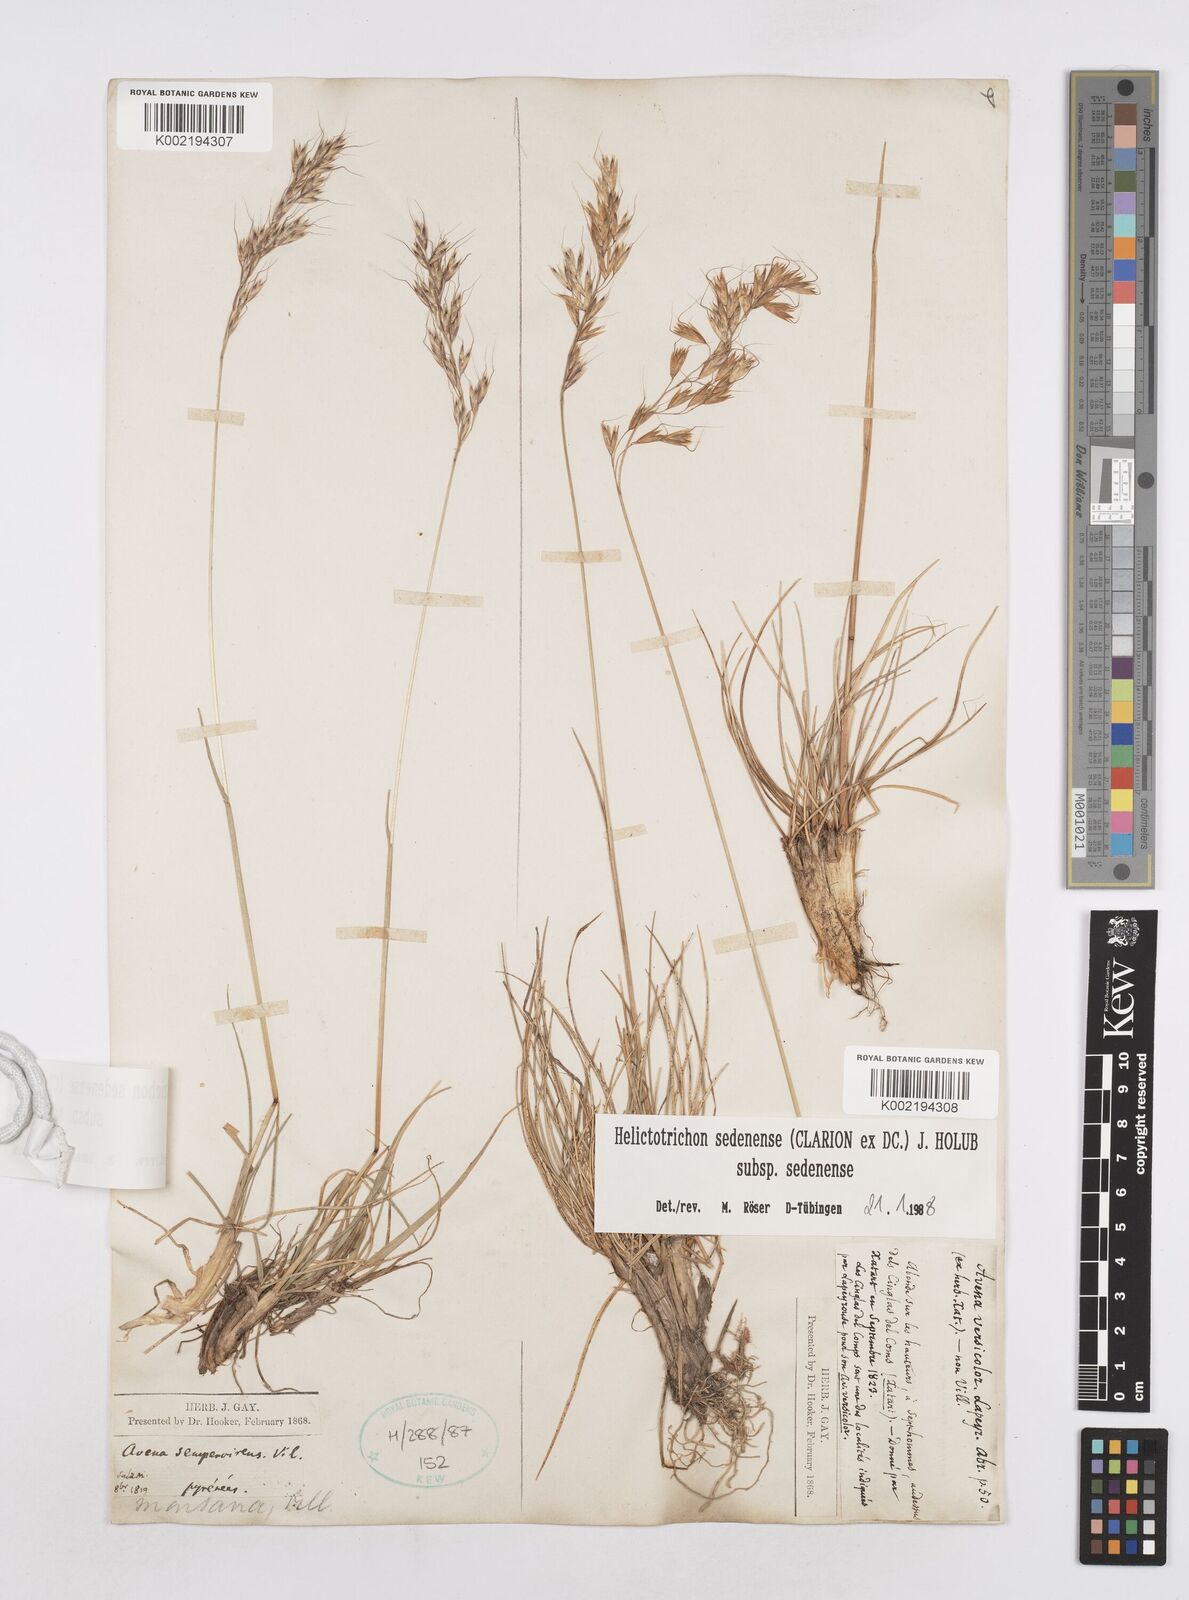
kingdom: Plantae
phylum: Tracheophyta
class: Liliopsida
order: Poales
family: Poaceae
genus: Helictotrichon
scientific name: Helictotrichon sedenense
